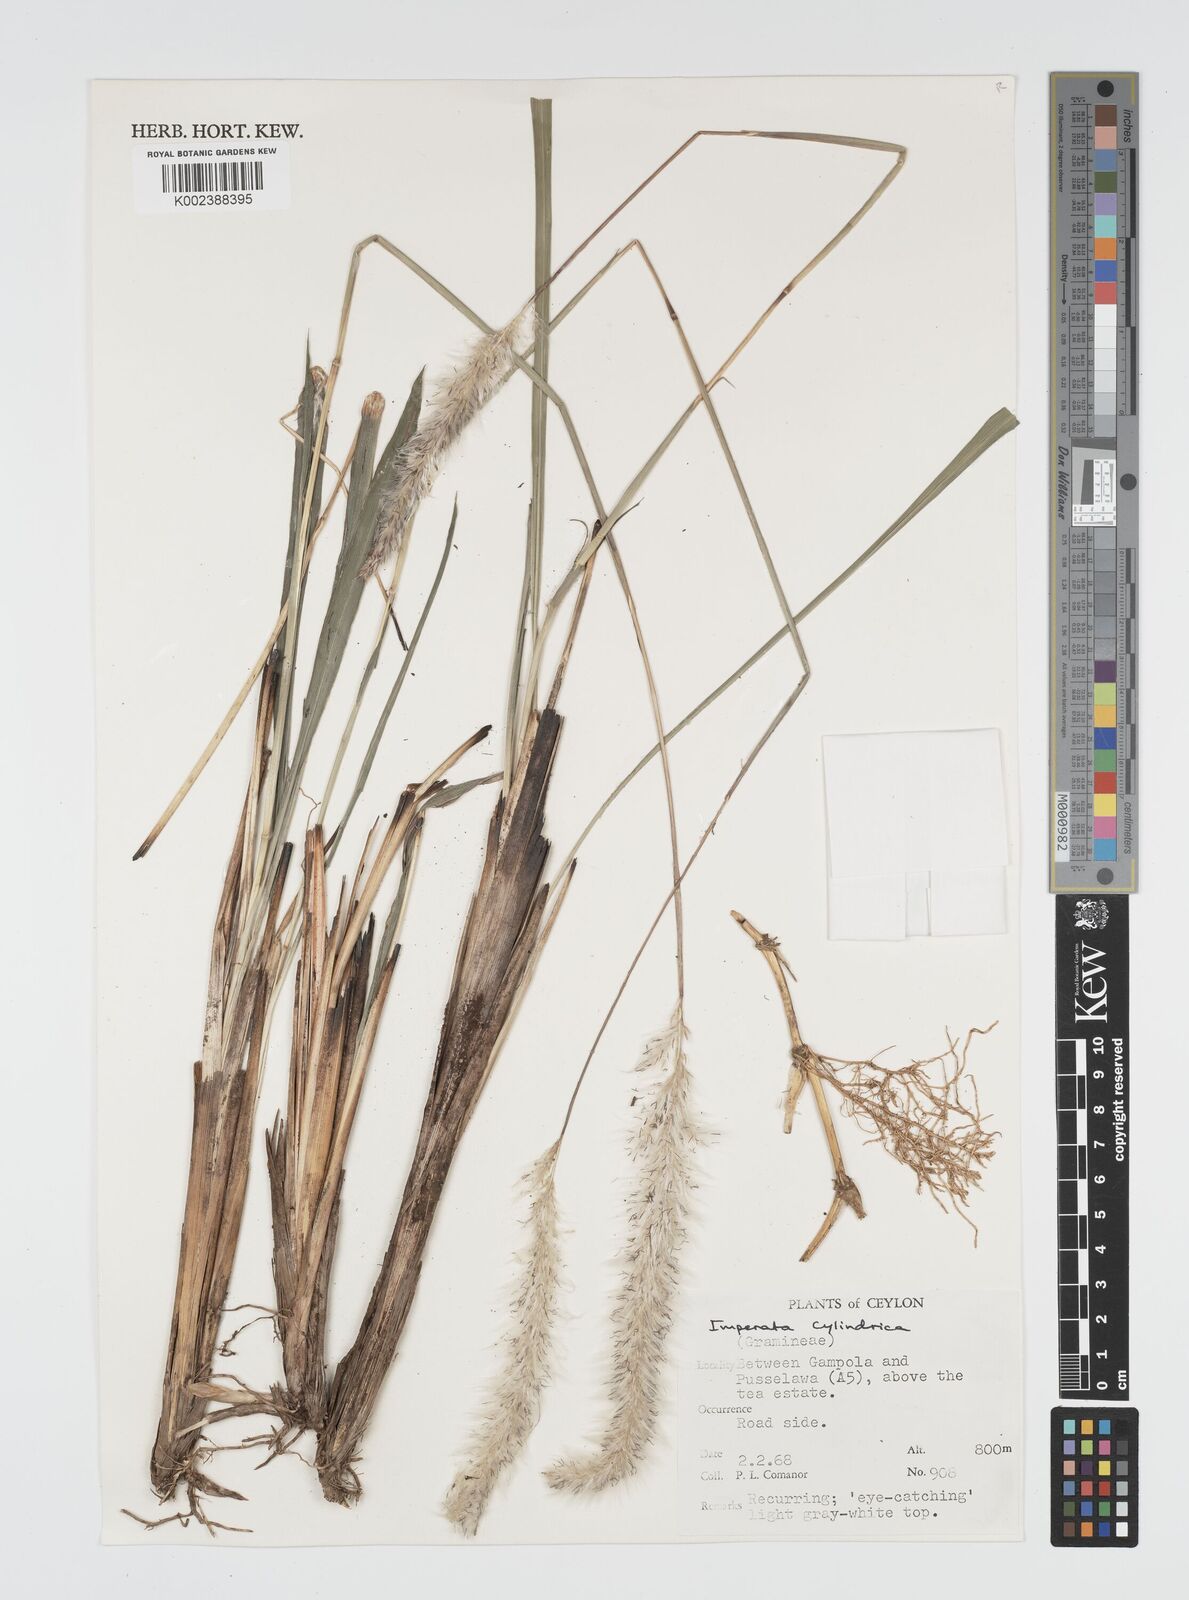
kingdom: Plantae
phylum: Tracheophyta
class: Liliopsida
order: Poales
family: Poaceae
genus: Imperata
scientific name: Imperata cylindrica
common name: Cogongrass
